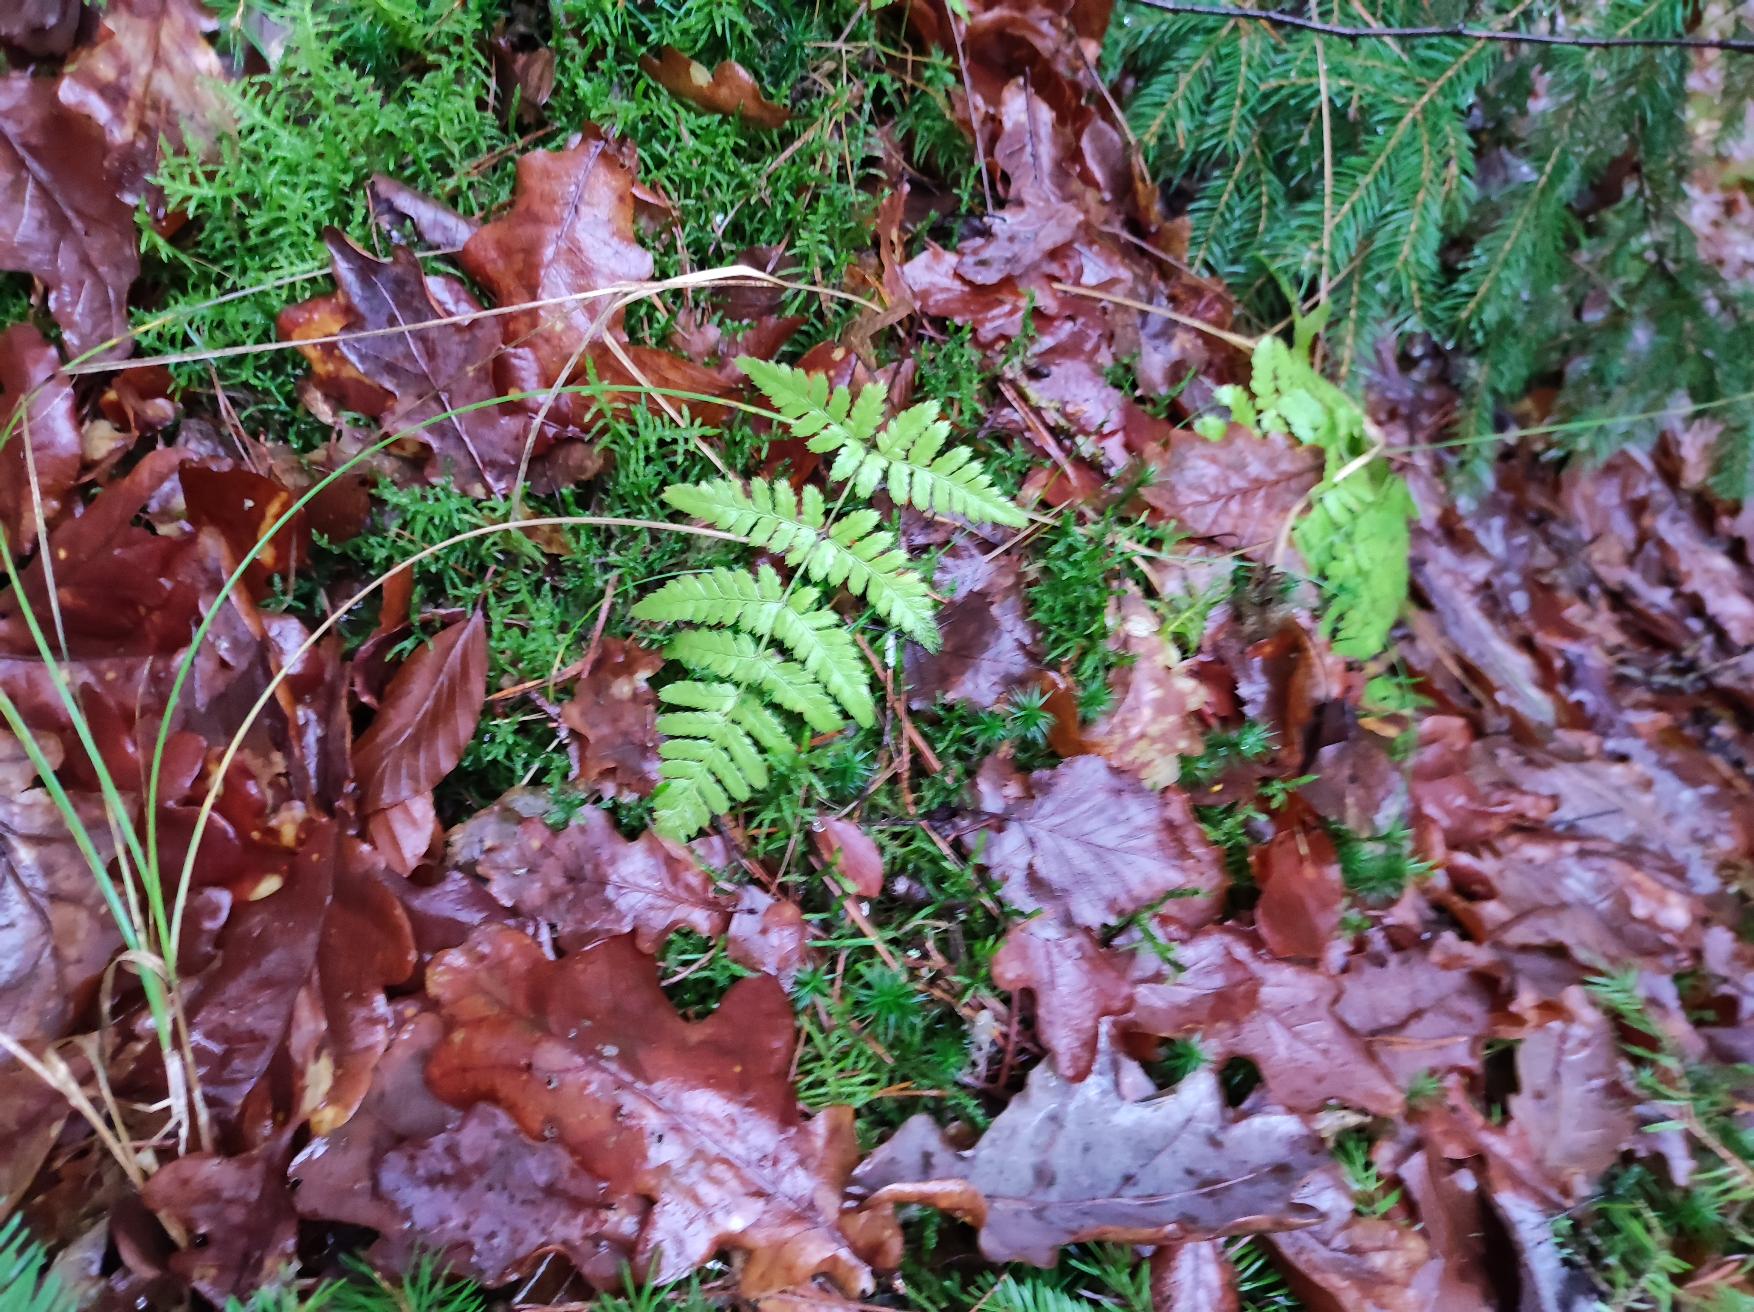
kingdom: Plantae
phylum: Tracheophyta
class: Polypodiopsida
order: Polypodiales
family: Dryopteridaceae
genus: Dryopteris
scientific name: Dryopteris
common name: Mangeløv (Dryopteris-slægten)
